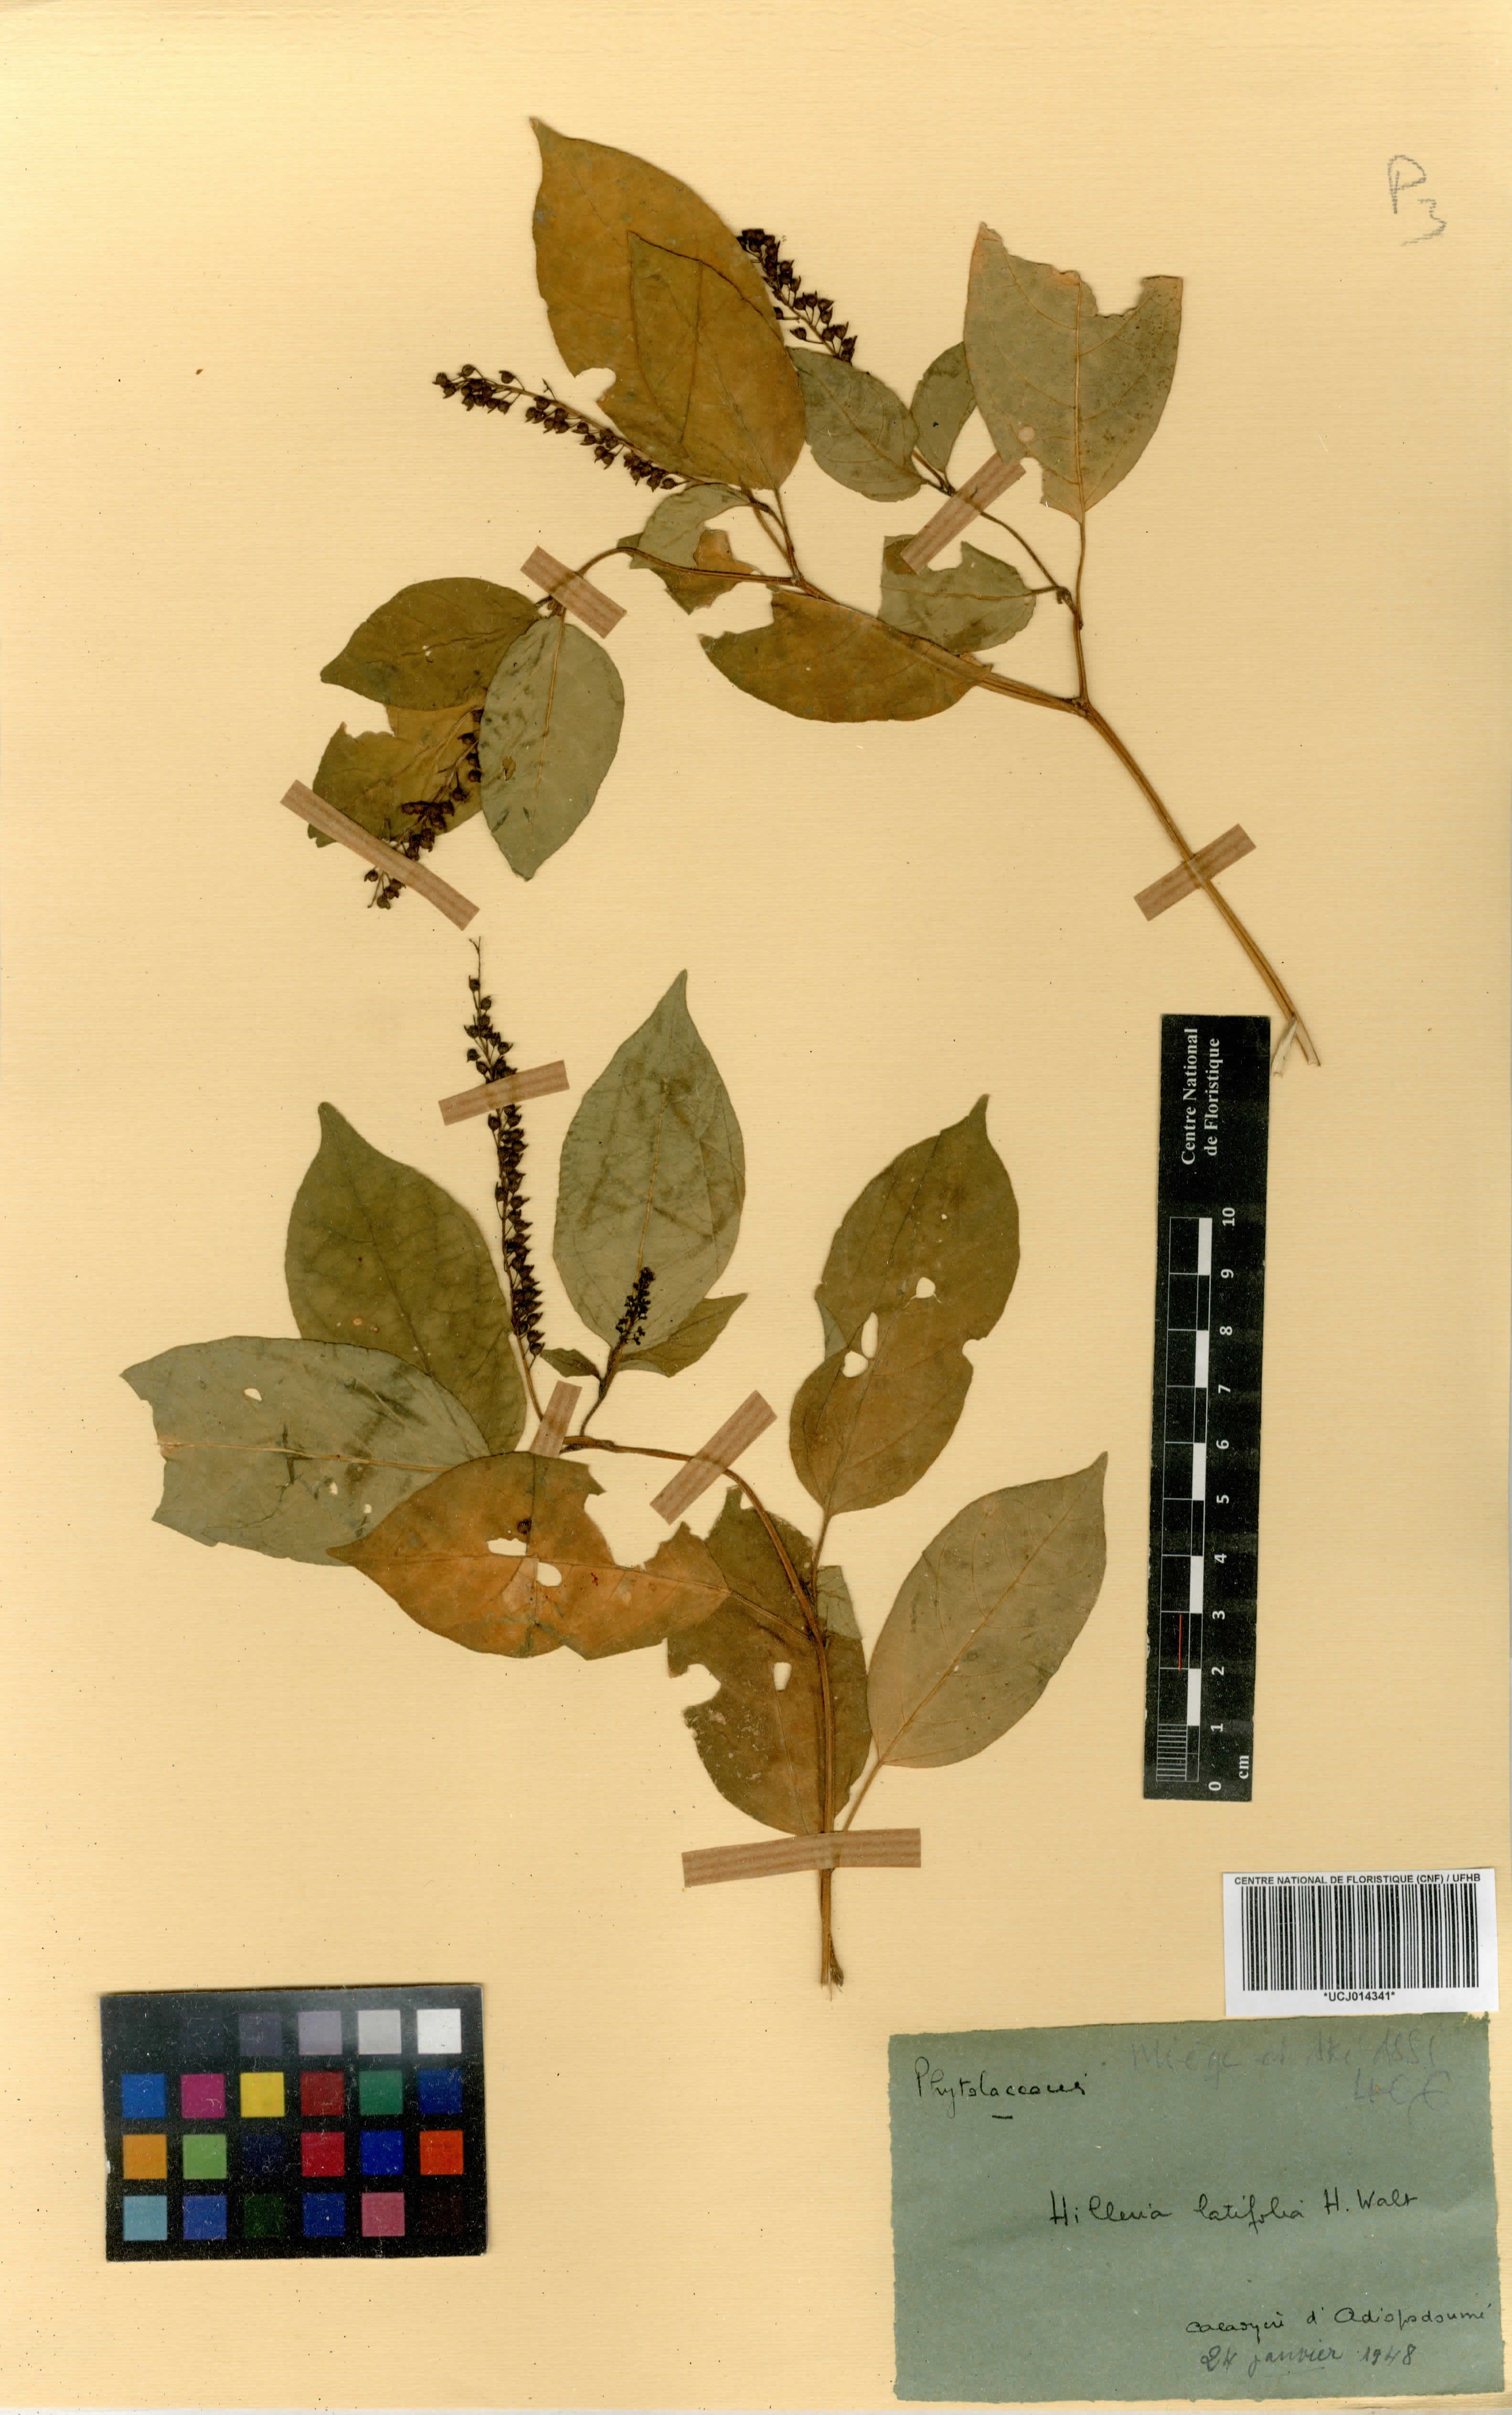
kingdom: Plantae
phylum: Tracheophyta
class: Magnoliopsida
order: Caryophyllales
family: Phytolaccaceae
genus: Hilleria
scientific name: Hilleria latifolia
